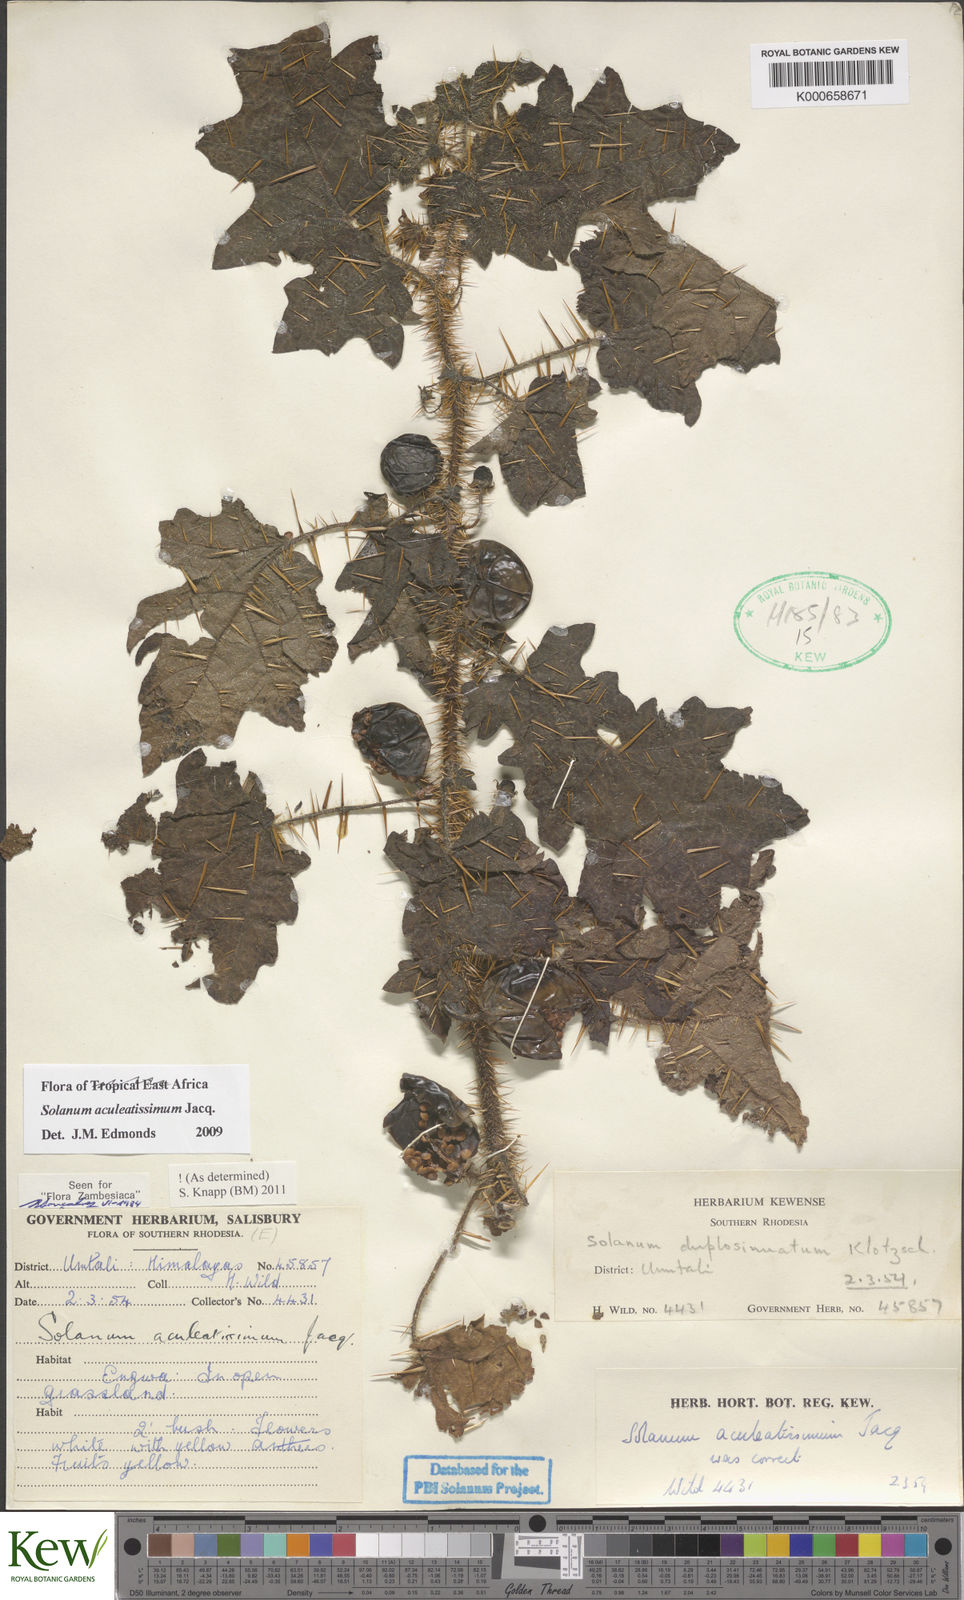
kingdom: Plantae
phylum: Tracheophyta
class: Magnoliopsida
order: Solanales
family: Solanaceae
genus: Solanum
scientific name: Solanum aculeatissimum
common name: Dutch eggplant
